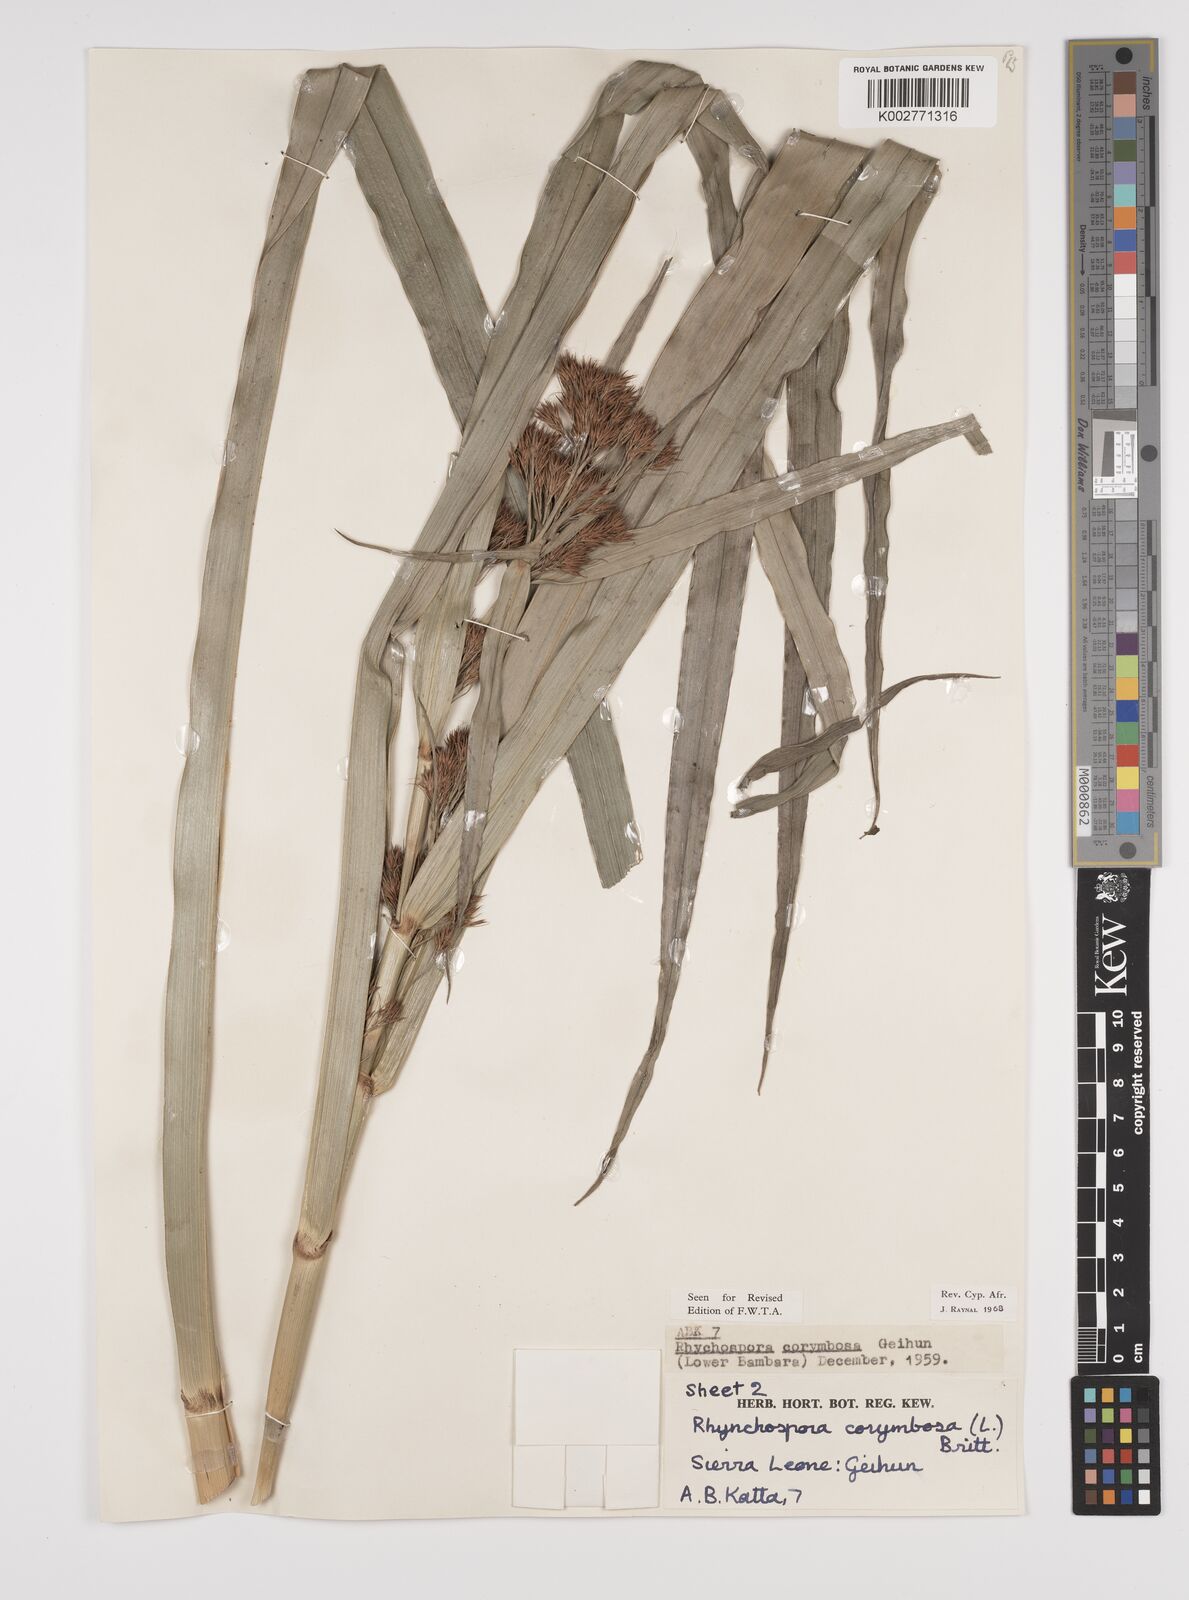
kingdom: Plantae
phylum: Tracheophyta
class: Liliopsida
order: Poales
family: Cyperaceae
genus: Rhynchospora
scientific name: Rhynchospora corymbosa
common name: Golden beak sedge
